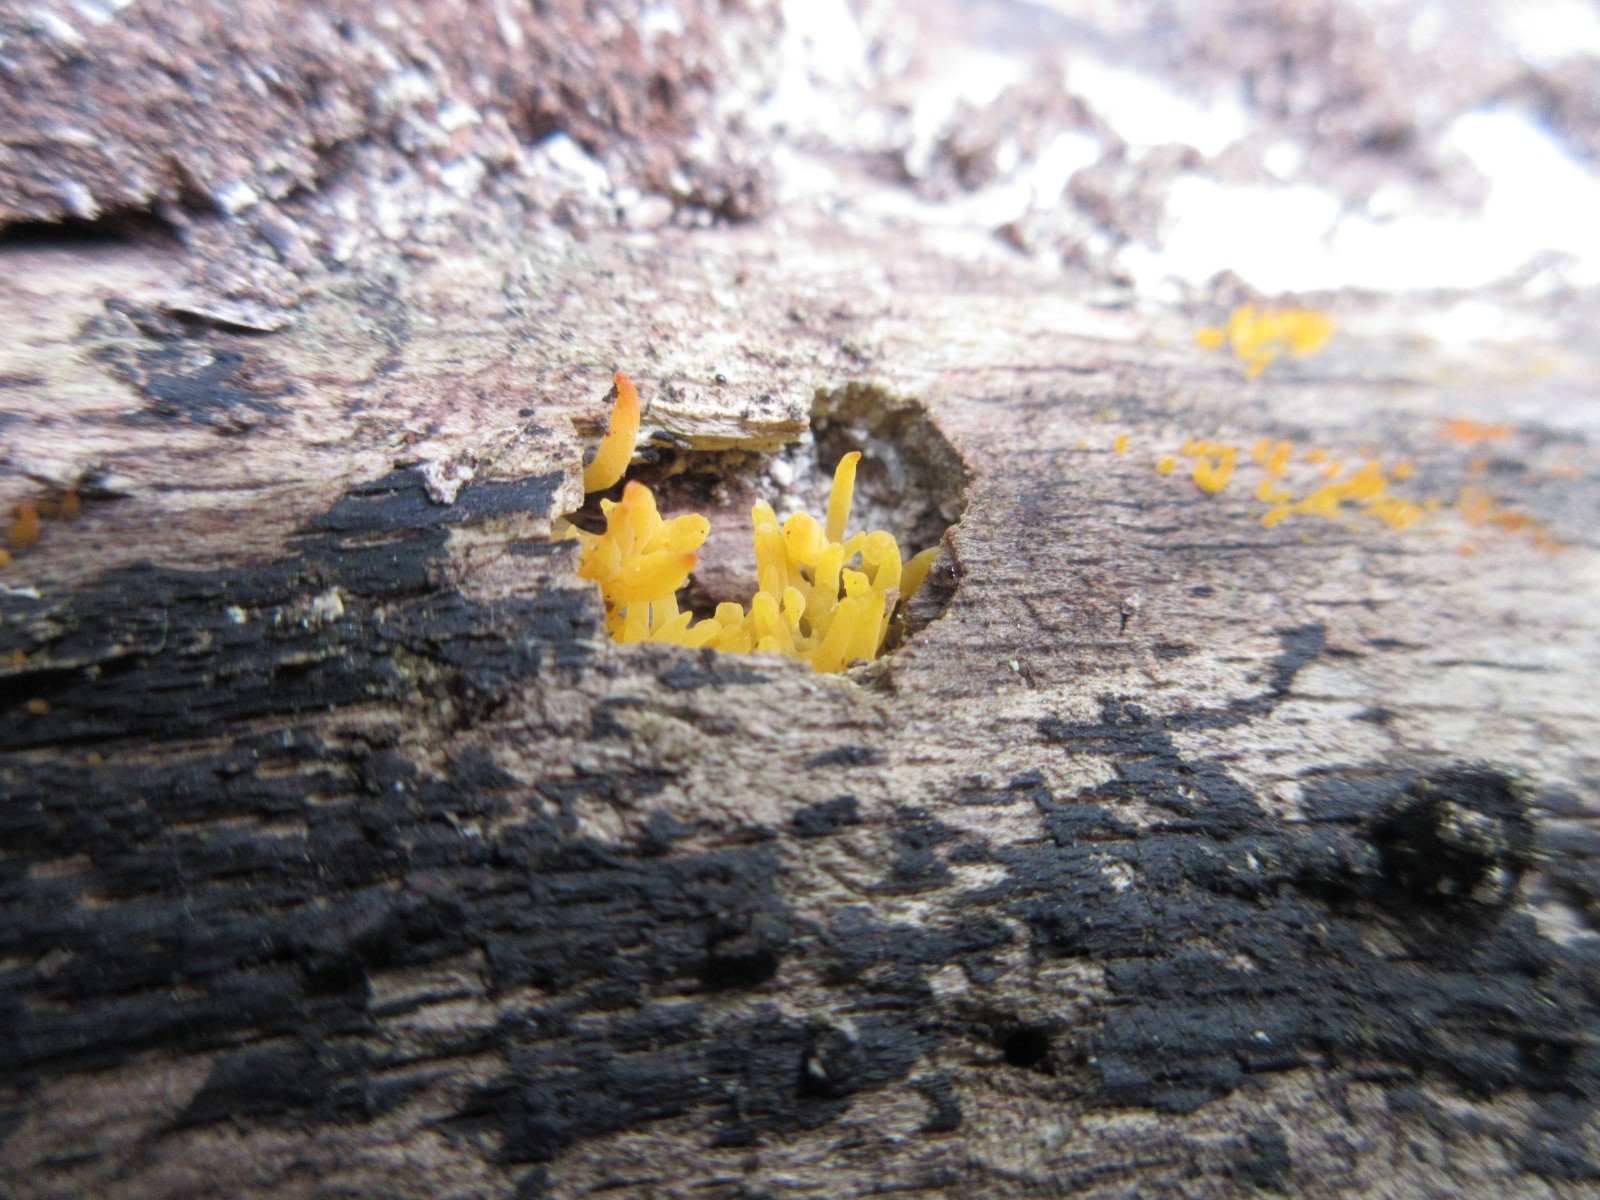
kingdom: Fungi
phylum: Basidiomycota
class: Dacrymycetes
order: Dacrymycetales
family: Dacrymycetaceae
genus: Calocera
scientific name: Calocera cornea
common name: liden guldgaffel
